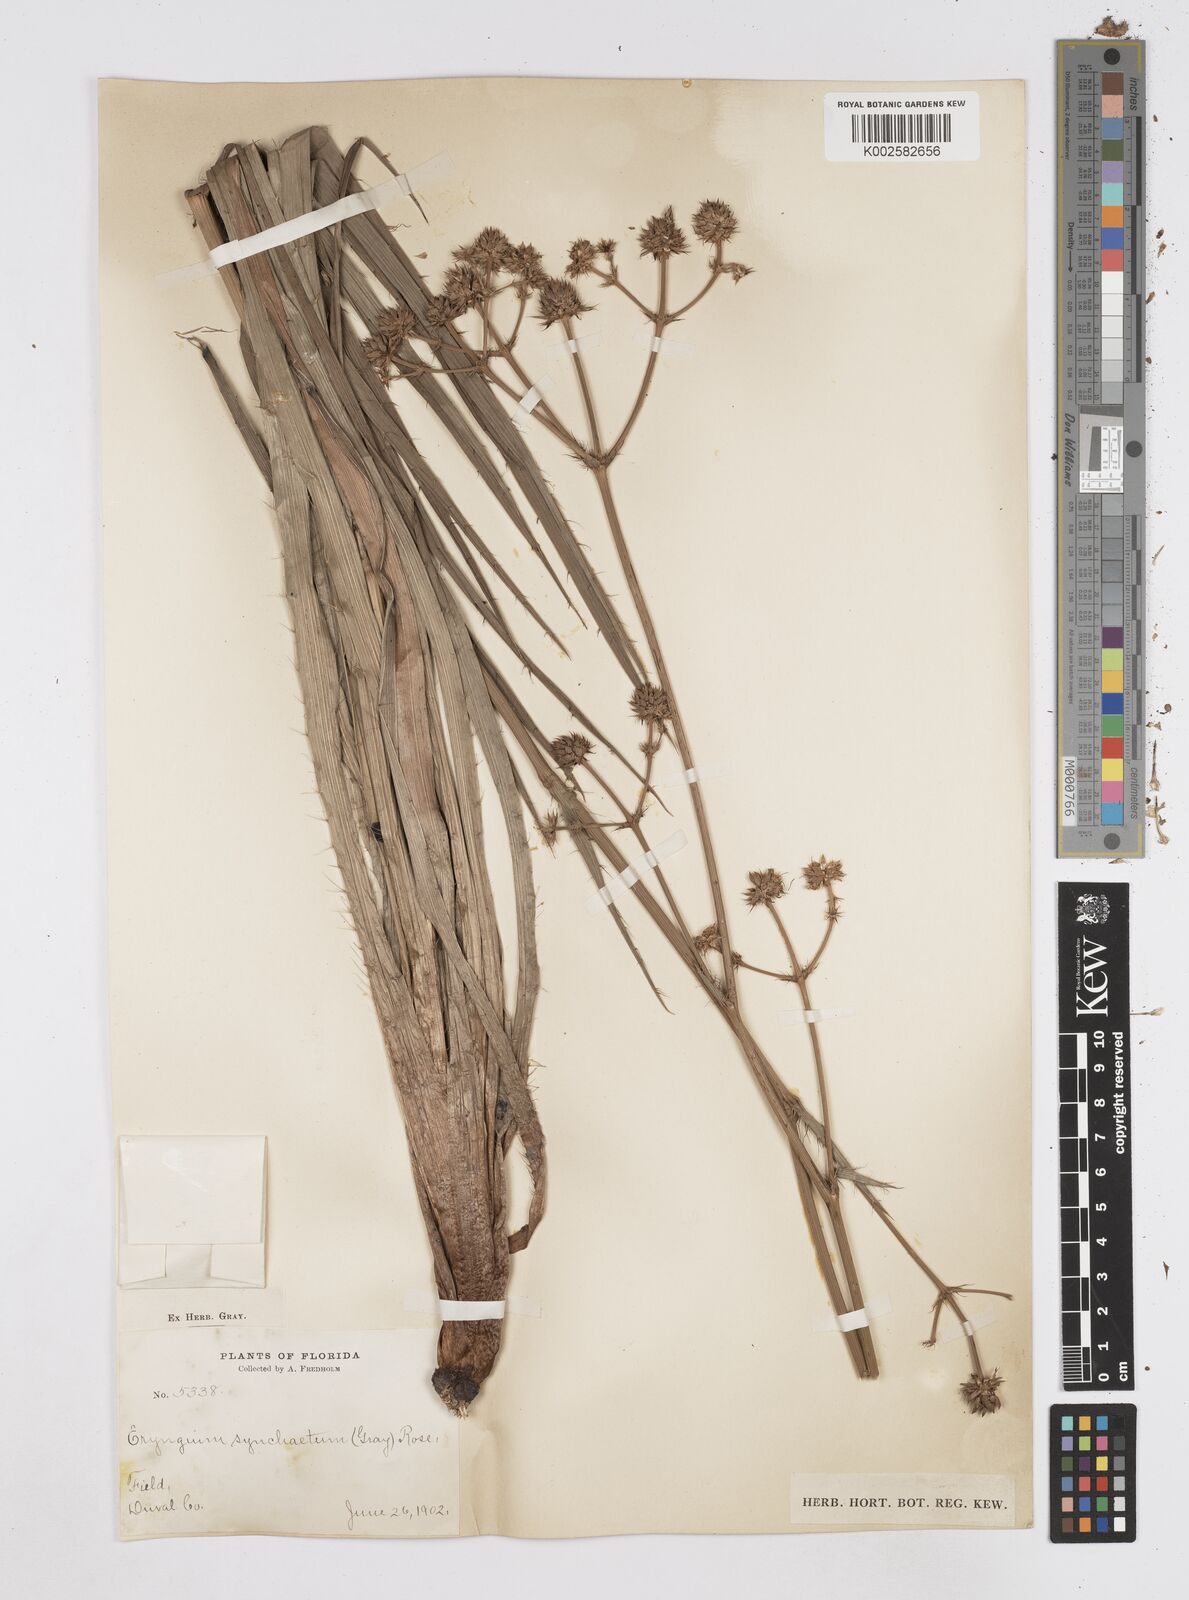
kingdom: Plantae
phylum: Tracheophyta
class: Magnoliopsida
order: Apiales
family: Apiaceae
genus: Eryngium
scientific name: Eryngium yuccifolium
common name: Button eryngo
